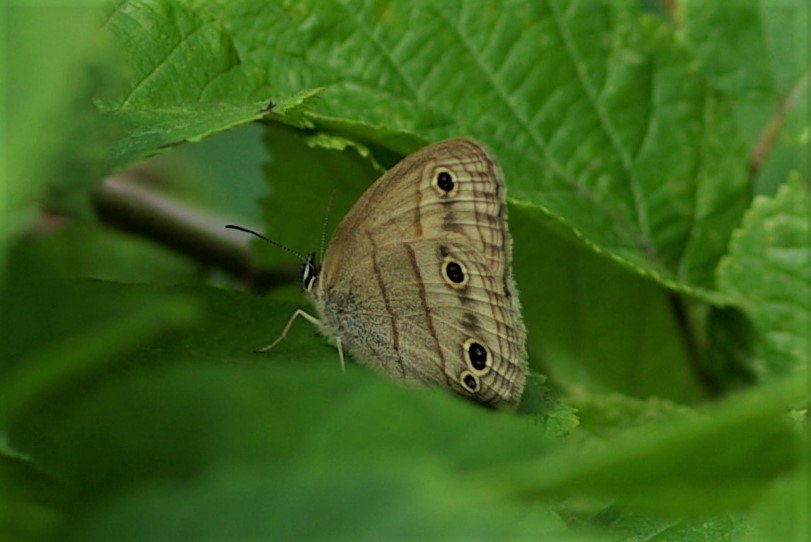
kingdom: Animalia
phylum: Arthropoda
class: Insecta
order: Lepidoptera
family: Nymphalidae
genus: Euptychia
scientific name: Euptychia cymela
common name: Little Wood Satyr
